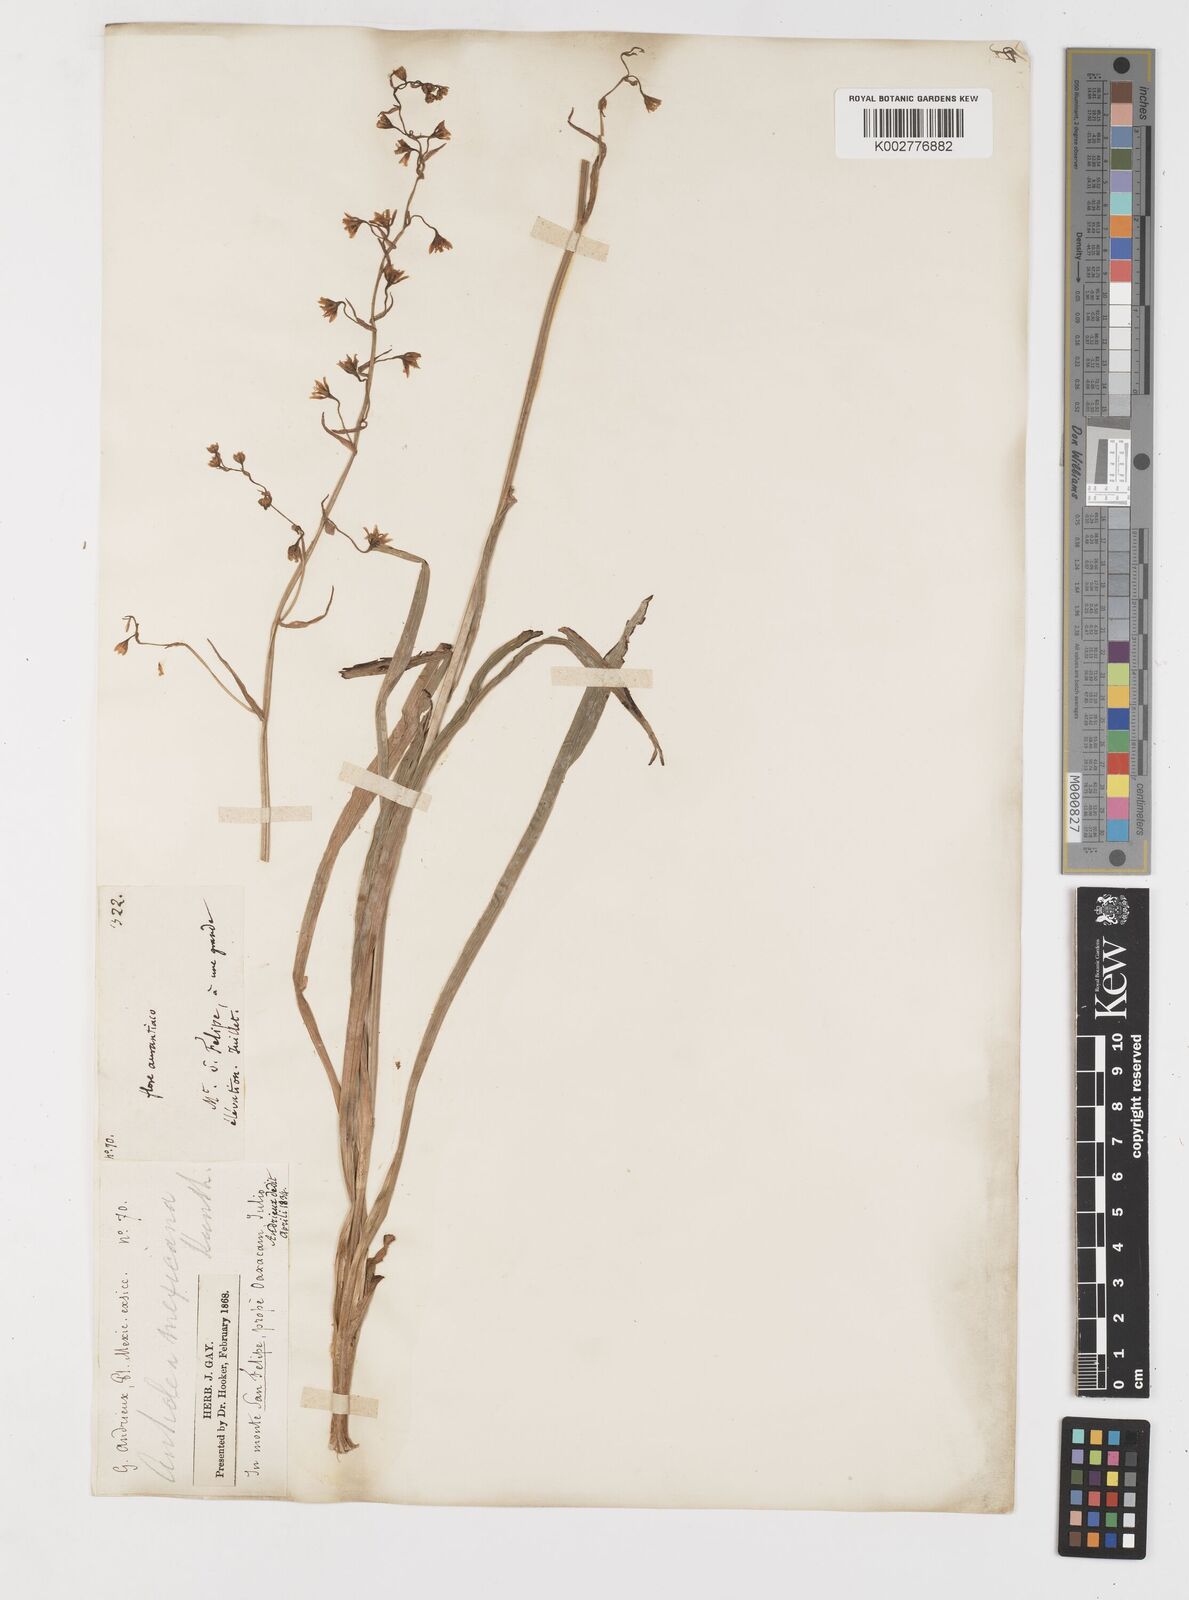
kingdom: Plantae
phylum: Tracheophyta
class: Liliopsida
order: Liliales
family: Melanthiaceae
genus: Anticlea
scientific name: Anticlea virescens
